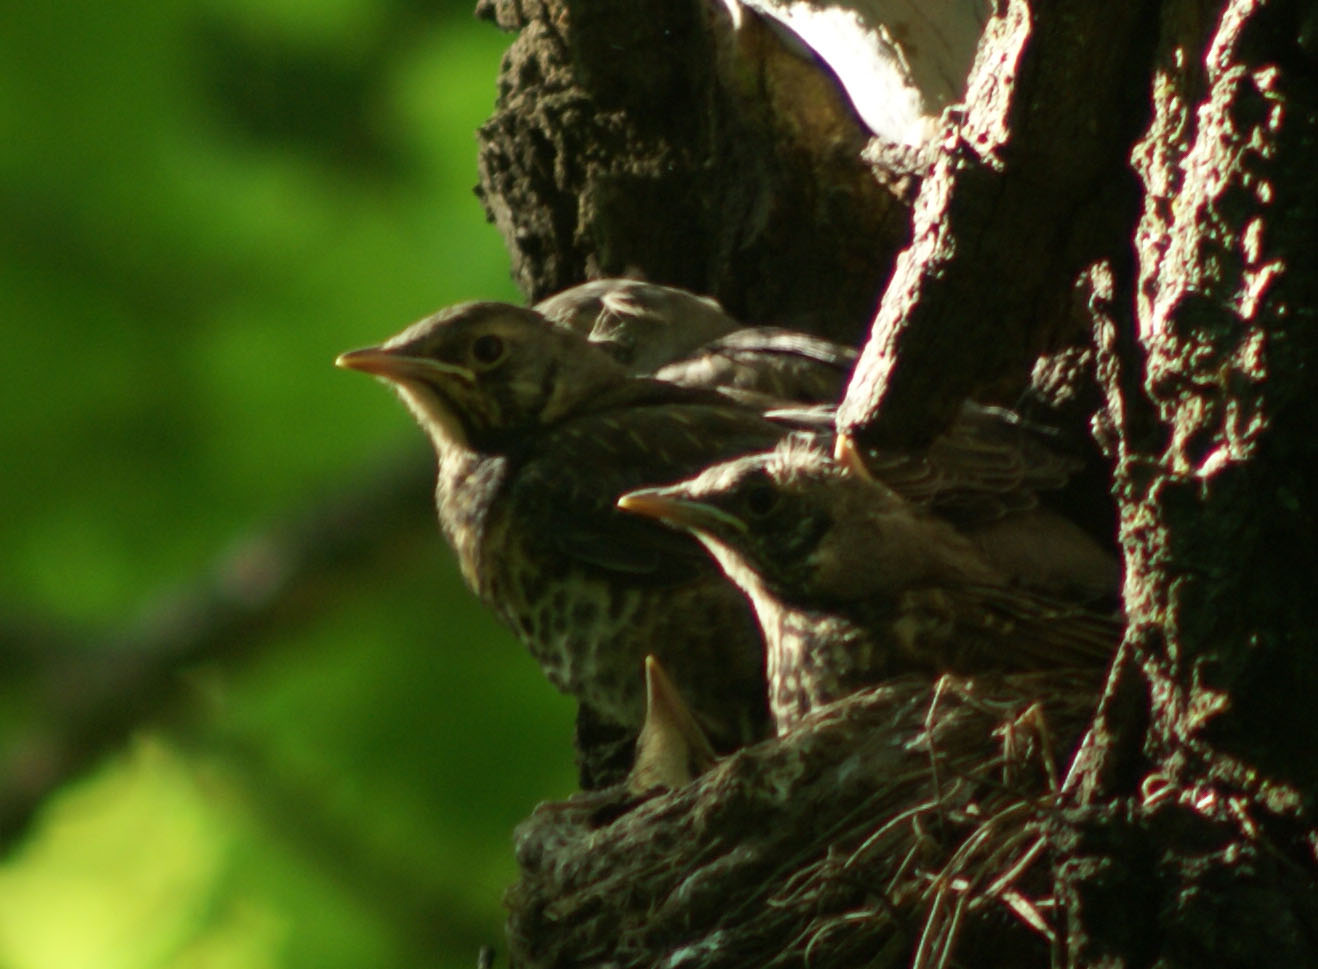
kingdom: Animalia
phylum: Chordata
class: Aves
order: Passeriformes
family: Turdidae
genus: Turdus
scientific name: Turdus pilaris
